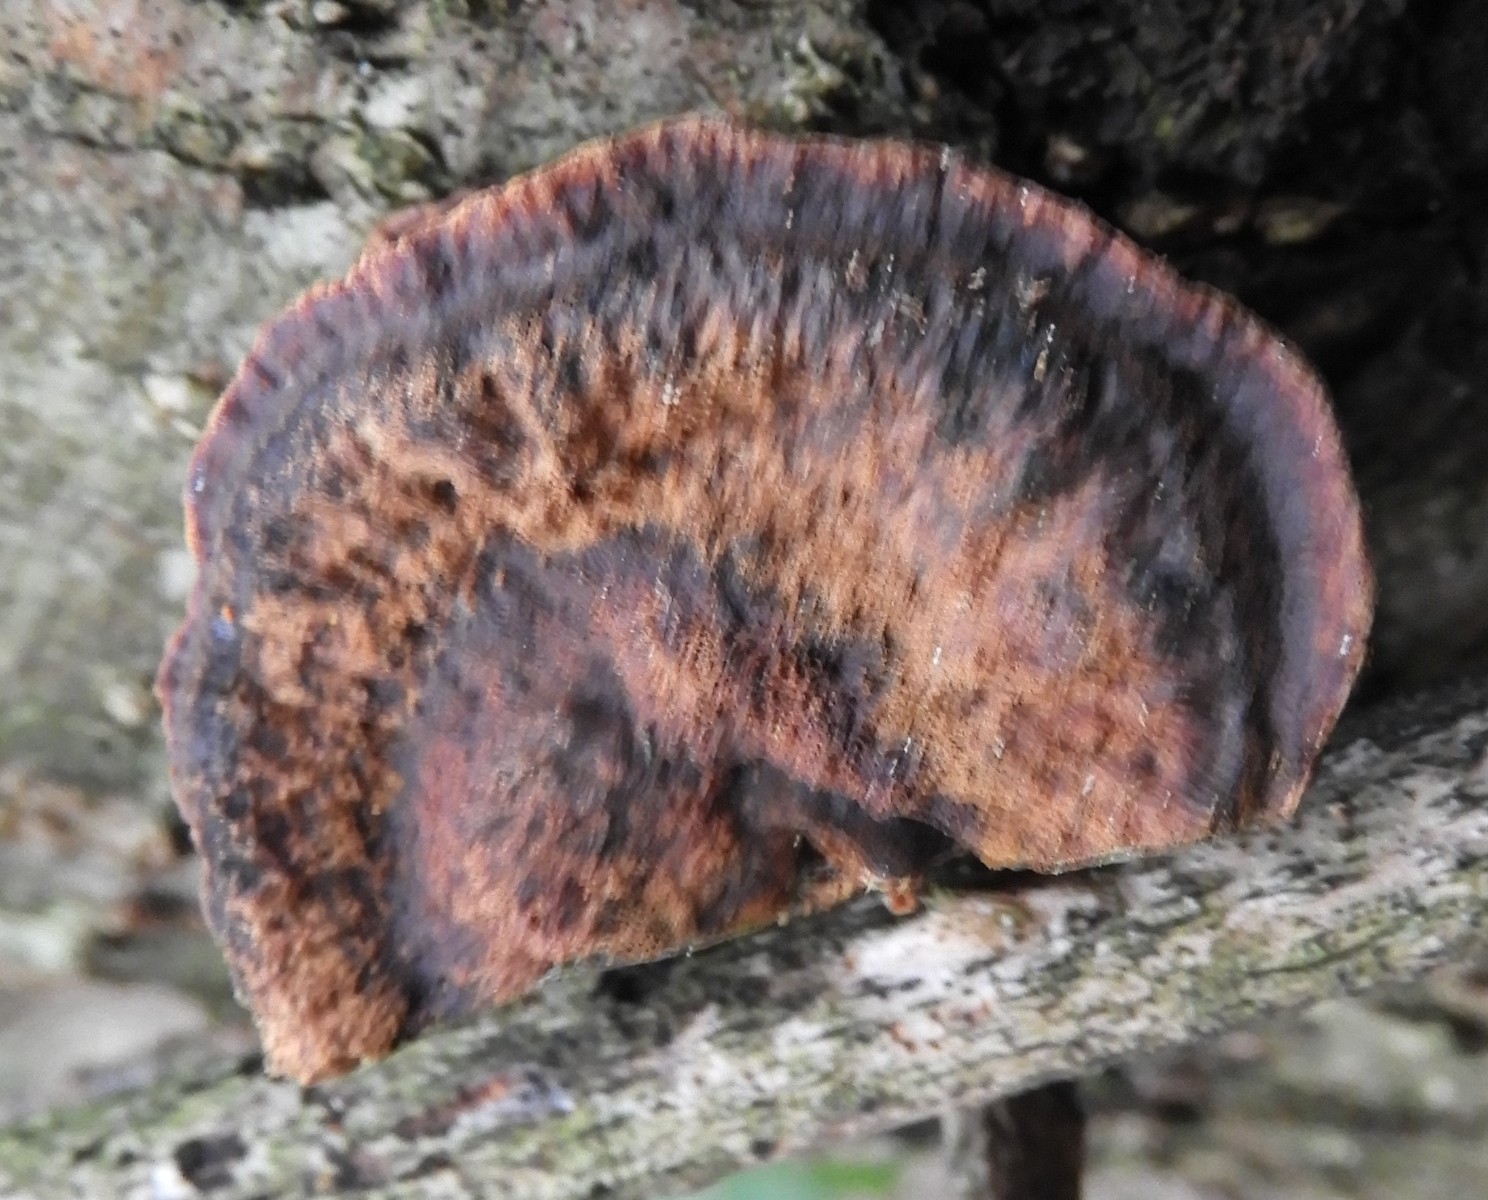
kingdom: Fungi
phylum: Basidiomycota
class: Agaricomycetes
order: Hymenochaetales
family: Hymenochaetaceae
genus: Xanthoporia
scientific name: Xanthoporia radiata
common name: elle-spejlporesvamp
